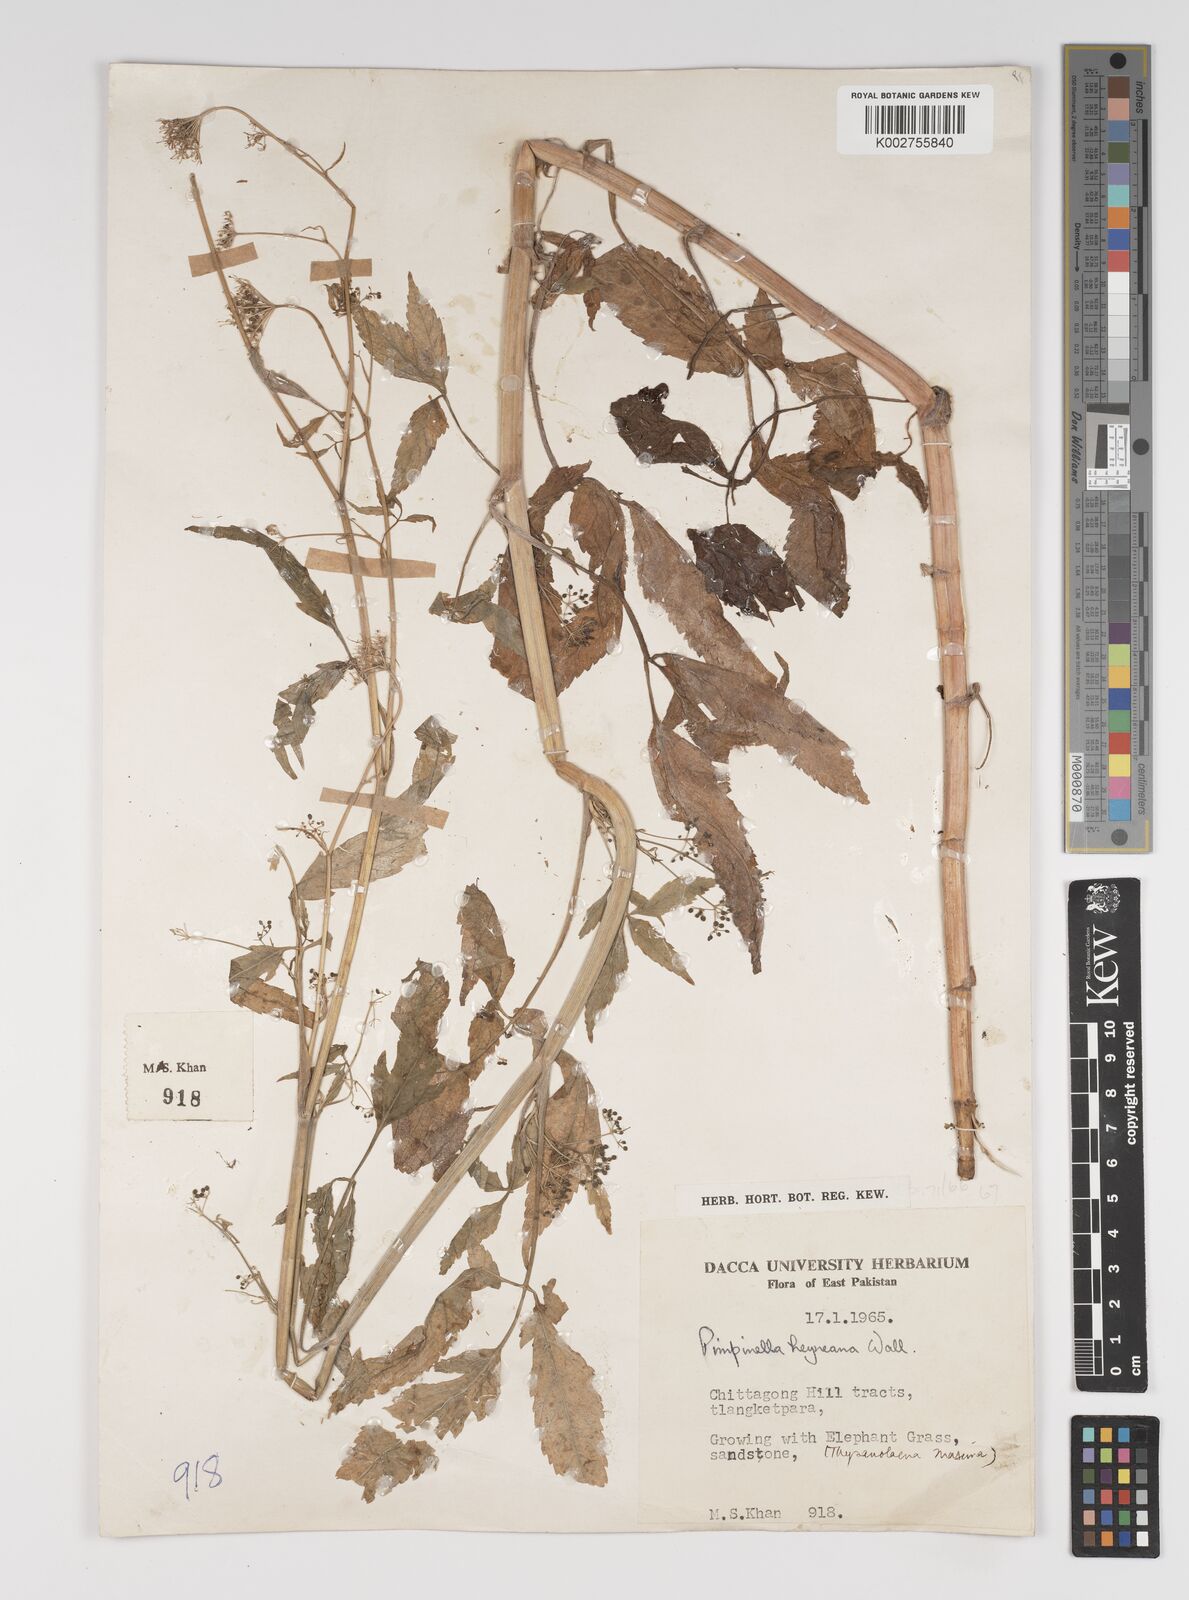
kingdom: Plantae
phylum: Tracheophyta
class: Magnoliopsida
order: Apiales
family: Apiaceae
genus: Pimpinella
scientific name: Pimpinella heyneana
